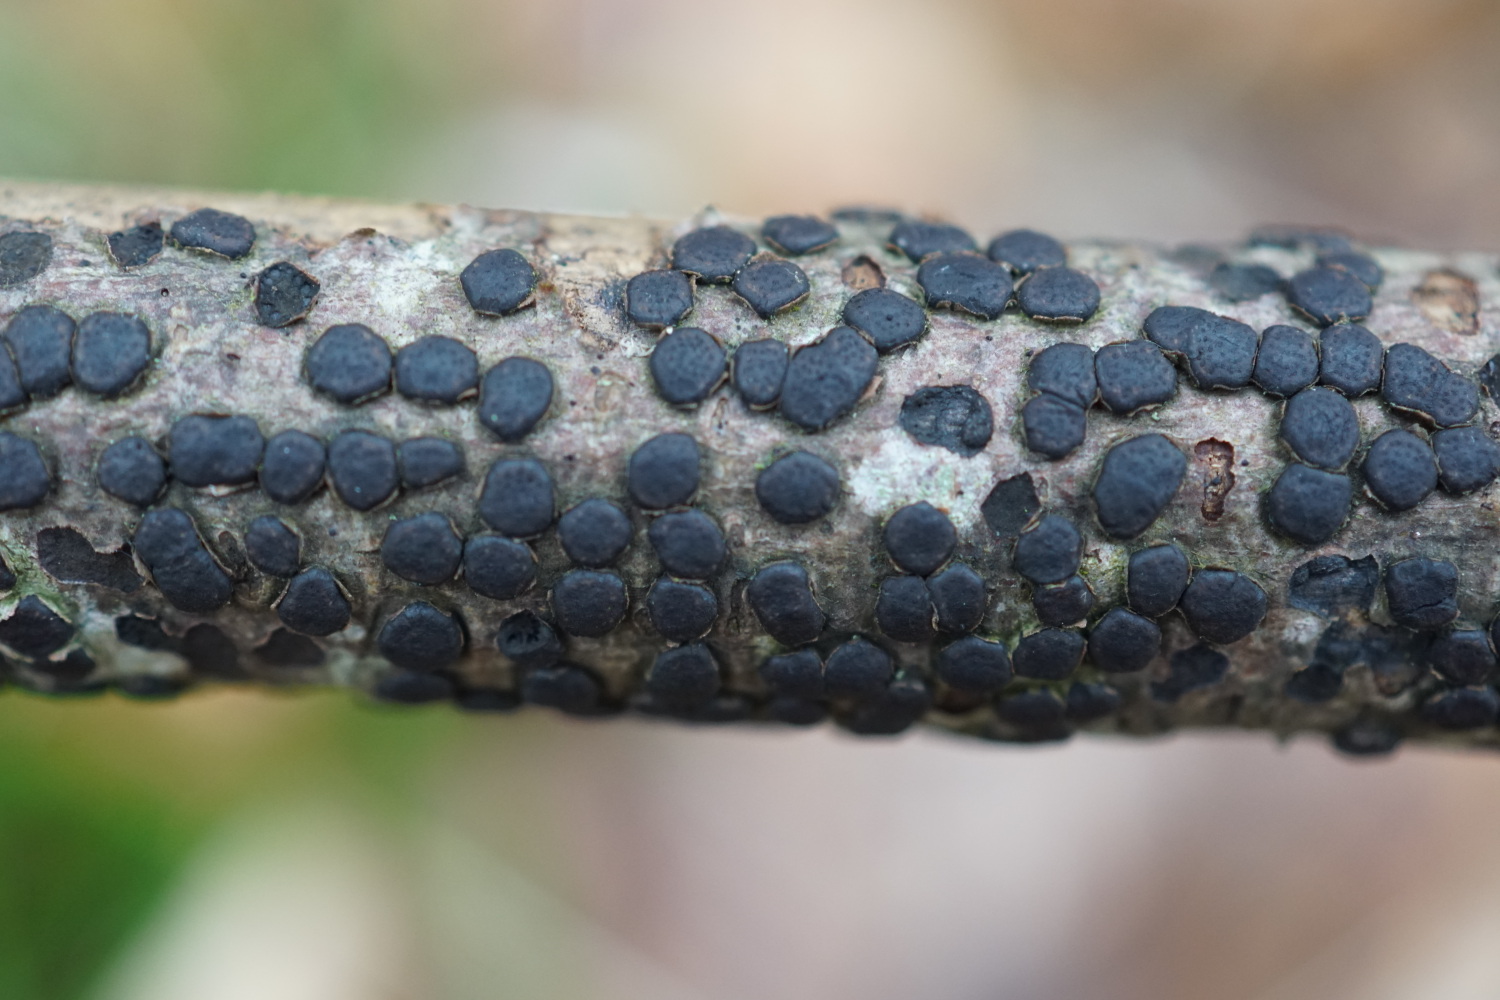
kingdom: Fungi
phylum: Ascomycota
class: Sordariomycetes
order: Xylariales
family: Diatrypaceae
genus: Diatrype
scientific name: Diatrype disciformis
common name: kant-kulskorpe
